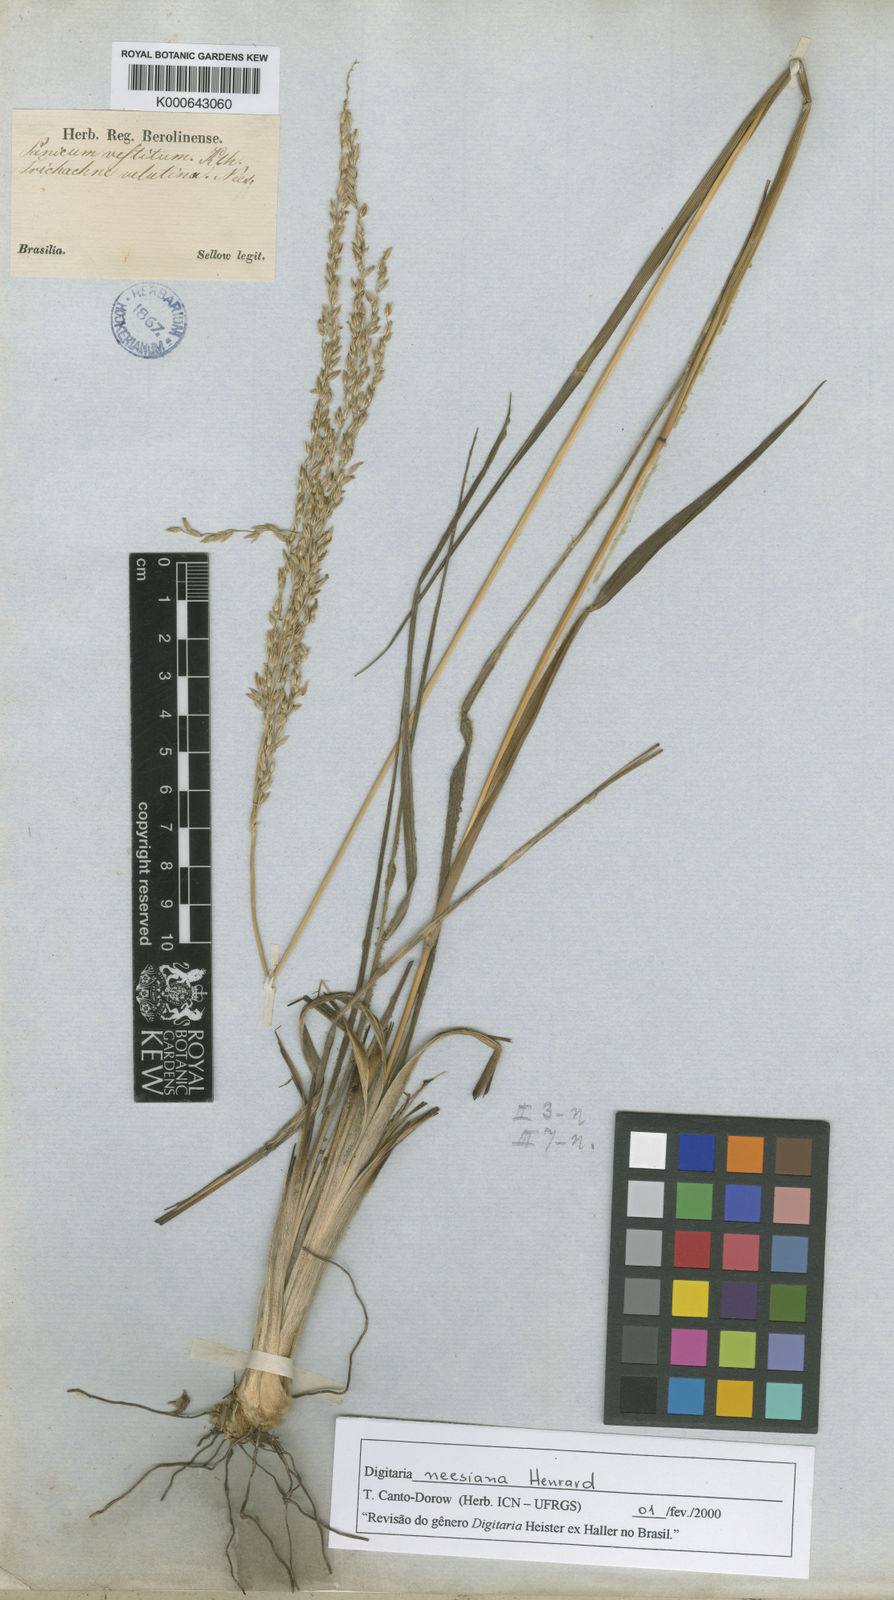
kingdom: Plantae
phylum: Tracheophyta
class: Liliopsida
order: Poales
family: Poaceae
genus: Digitaria
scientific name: Digitaria neesiana
